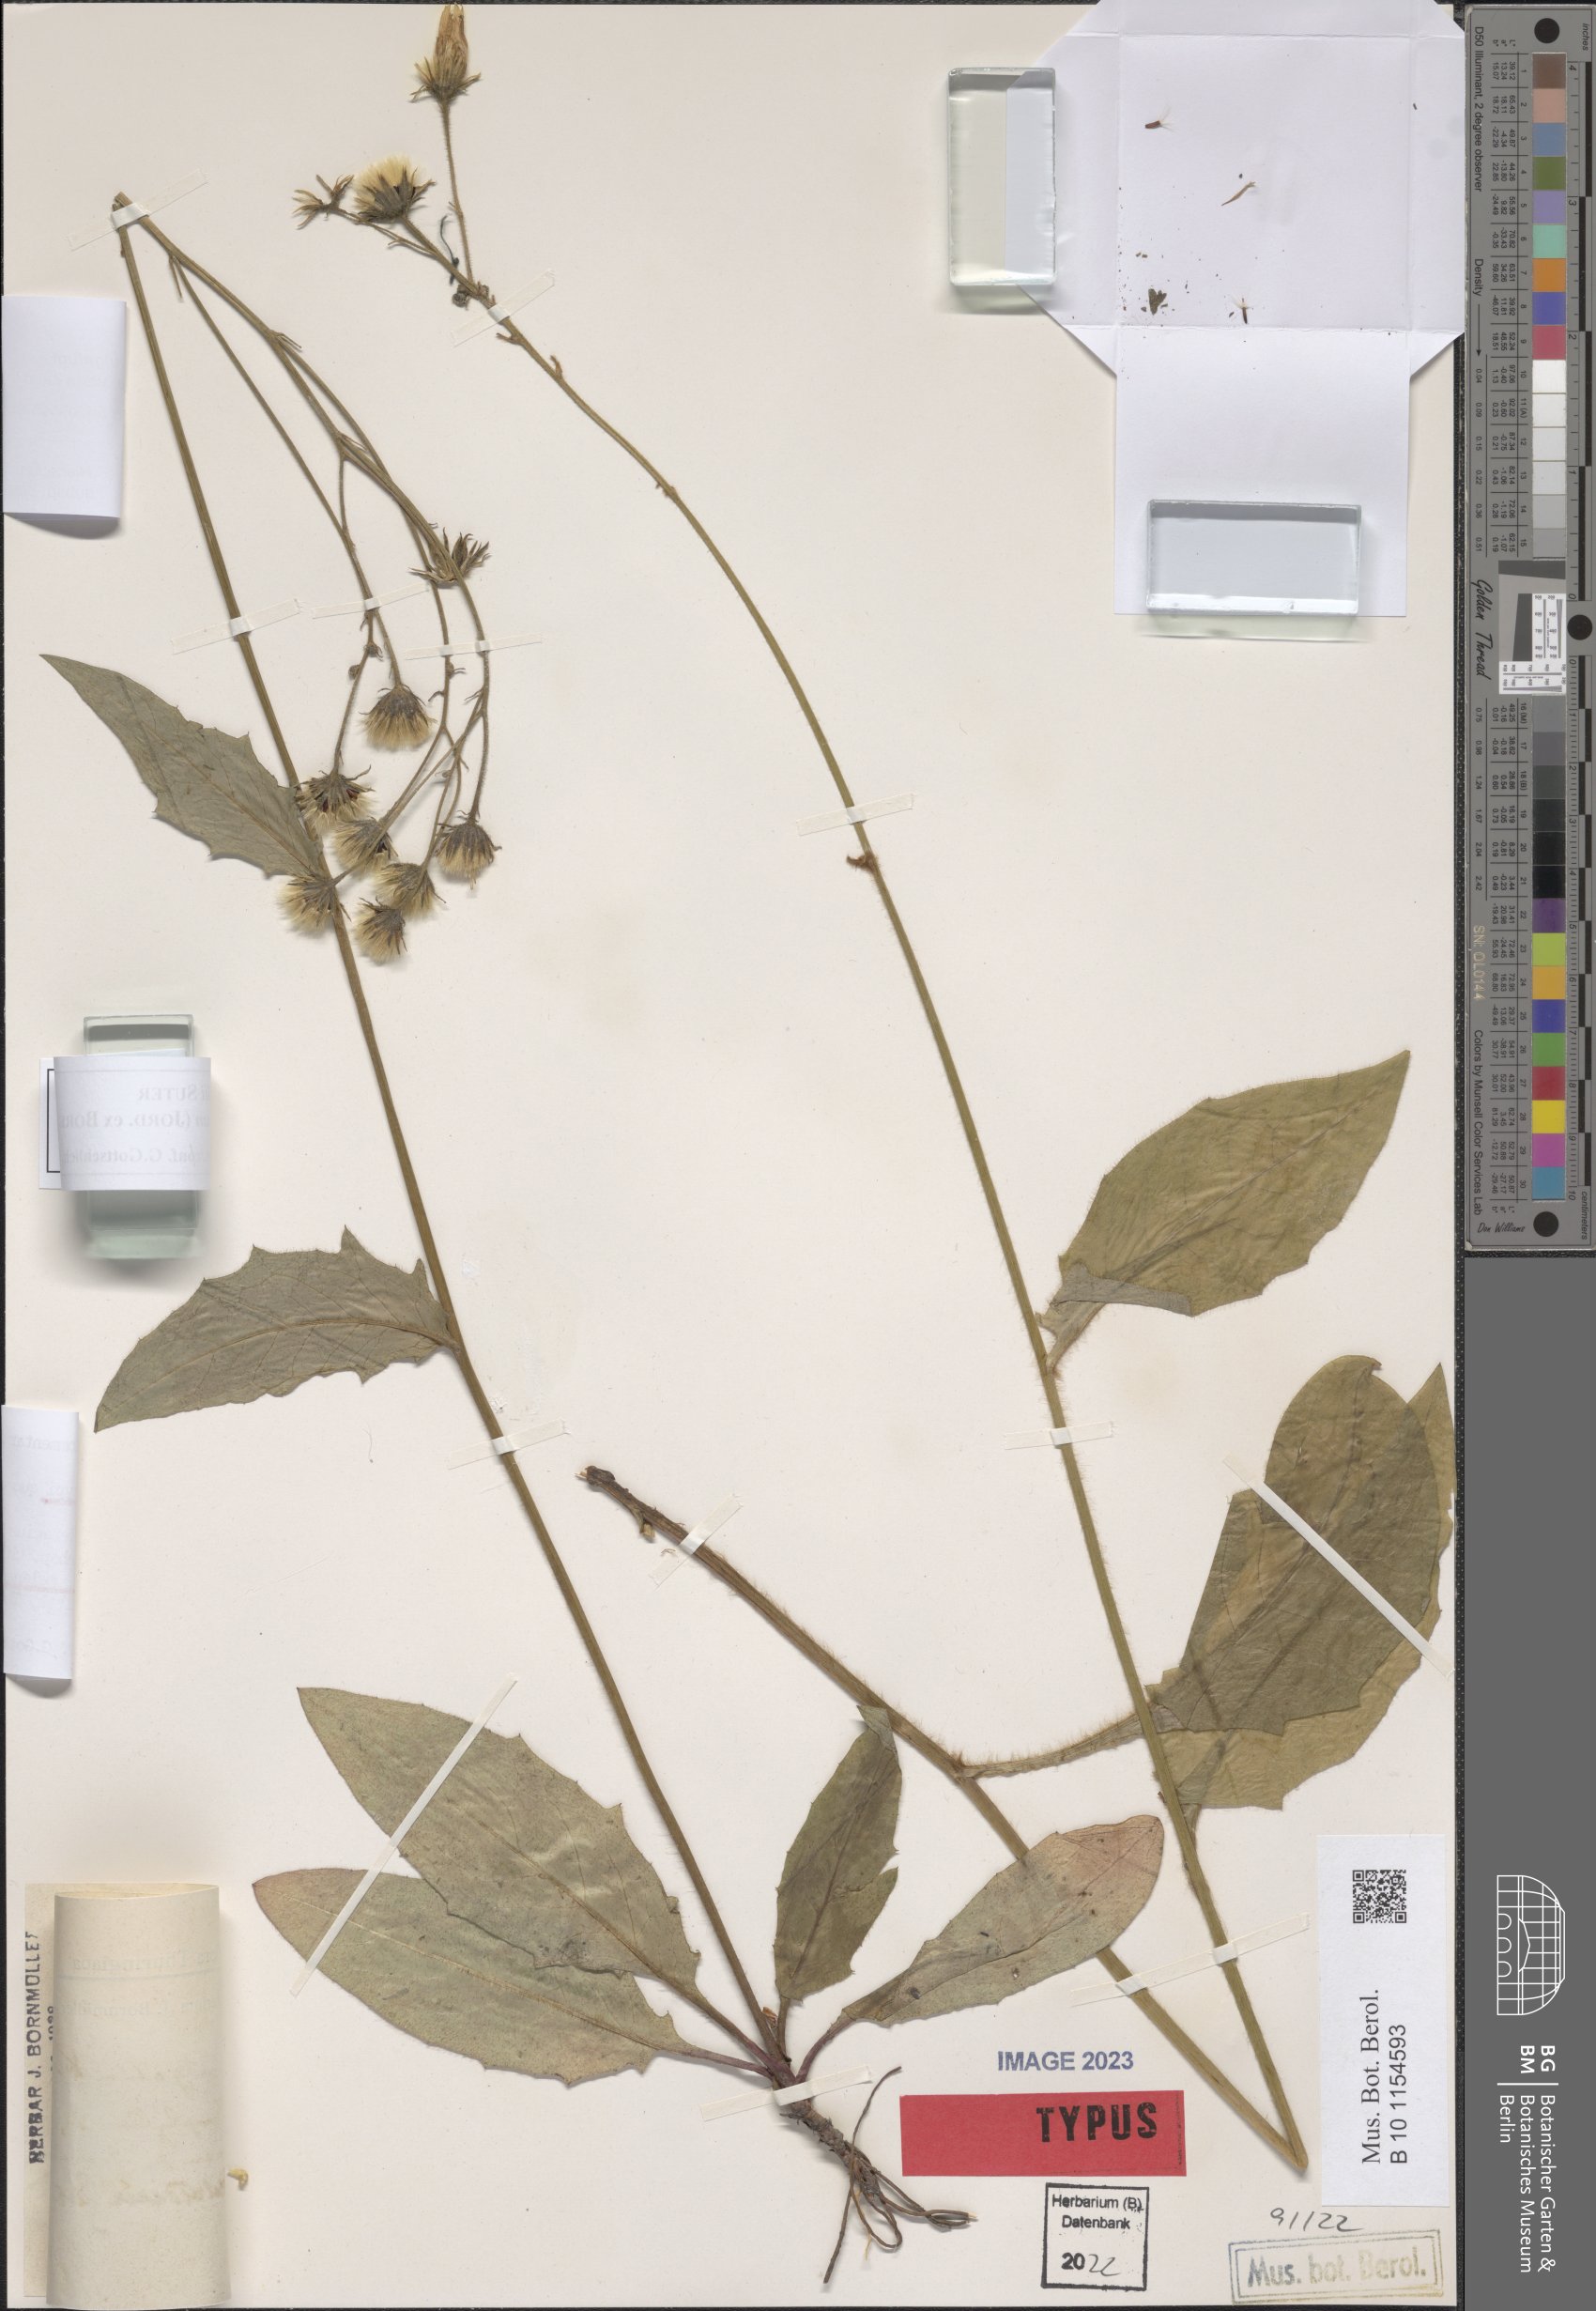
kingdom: Plantae
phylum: Tracheophyta
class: Magnoliopsida
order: Asterales
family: Asteraceae
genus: Hieracium
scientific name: Hieracium vulgatum
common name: Common hawkweed
